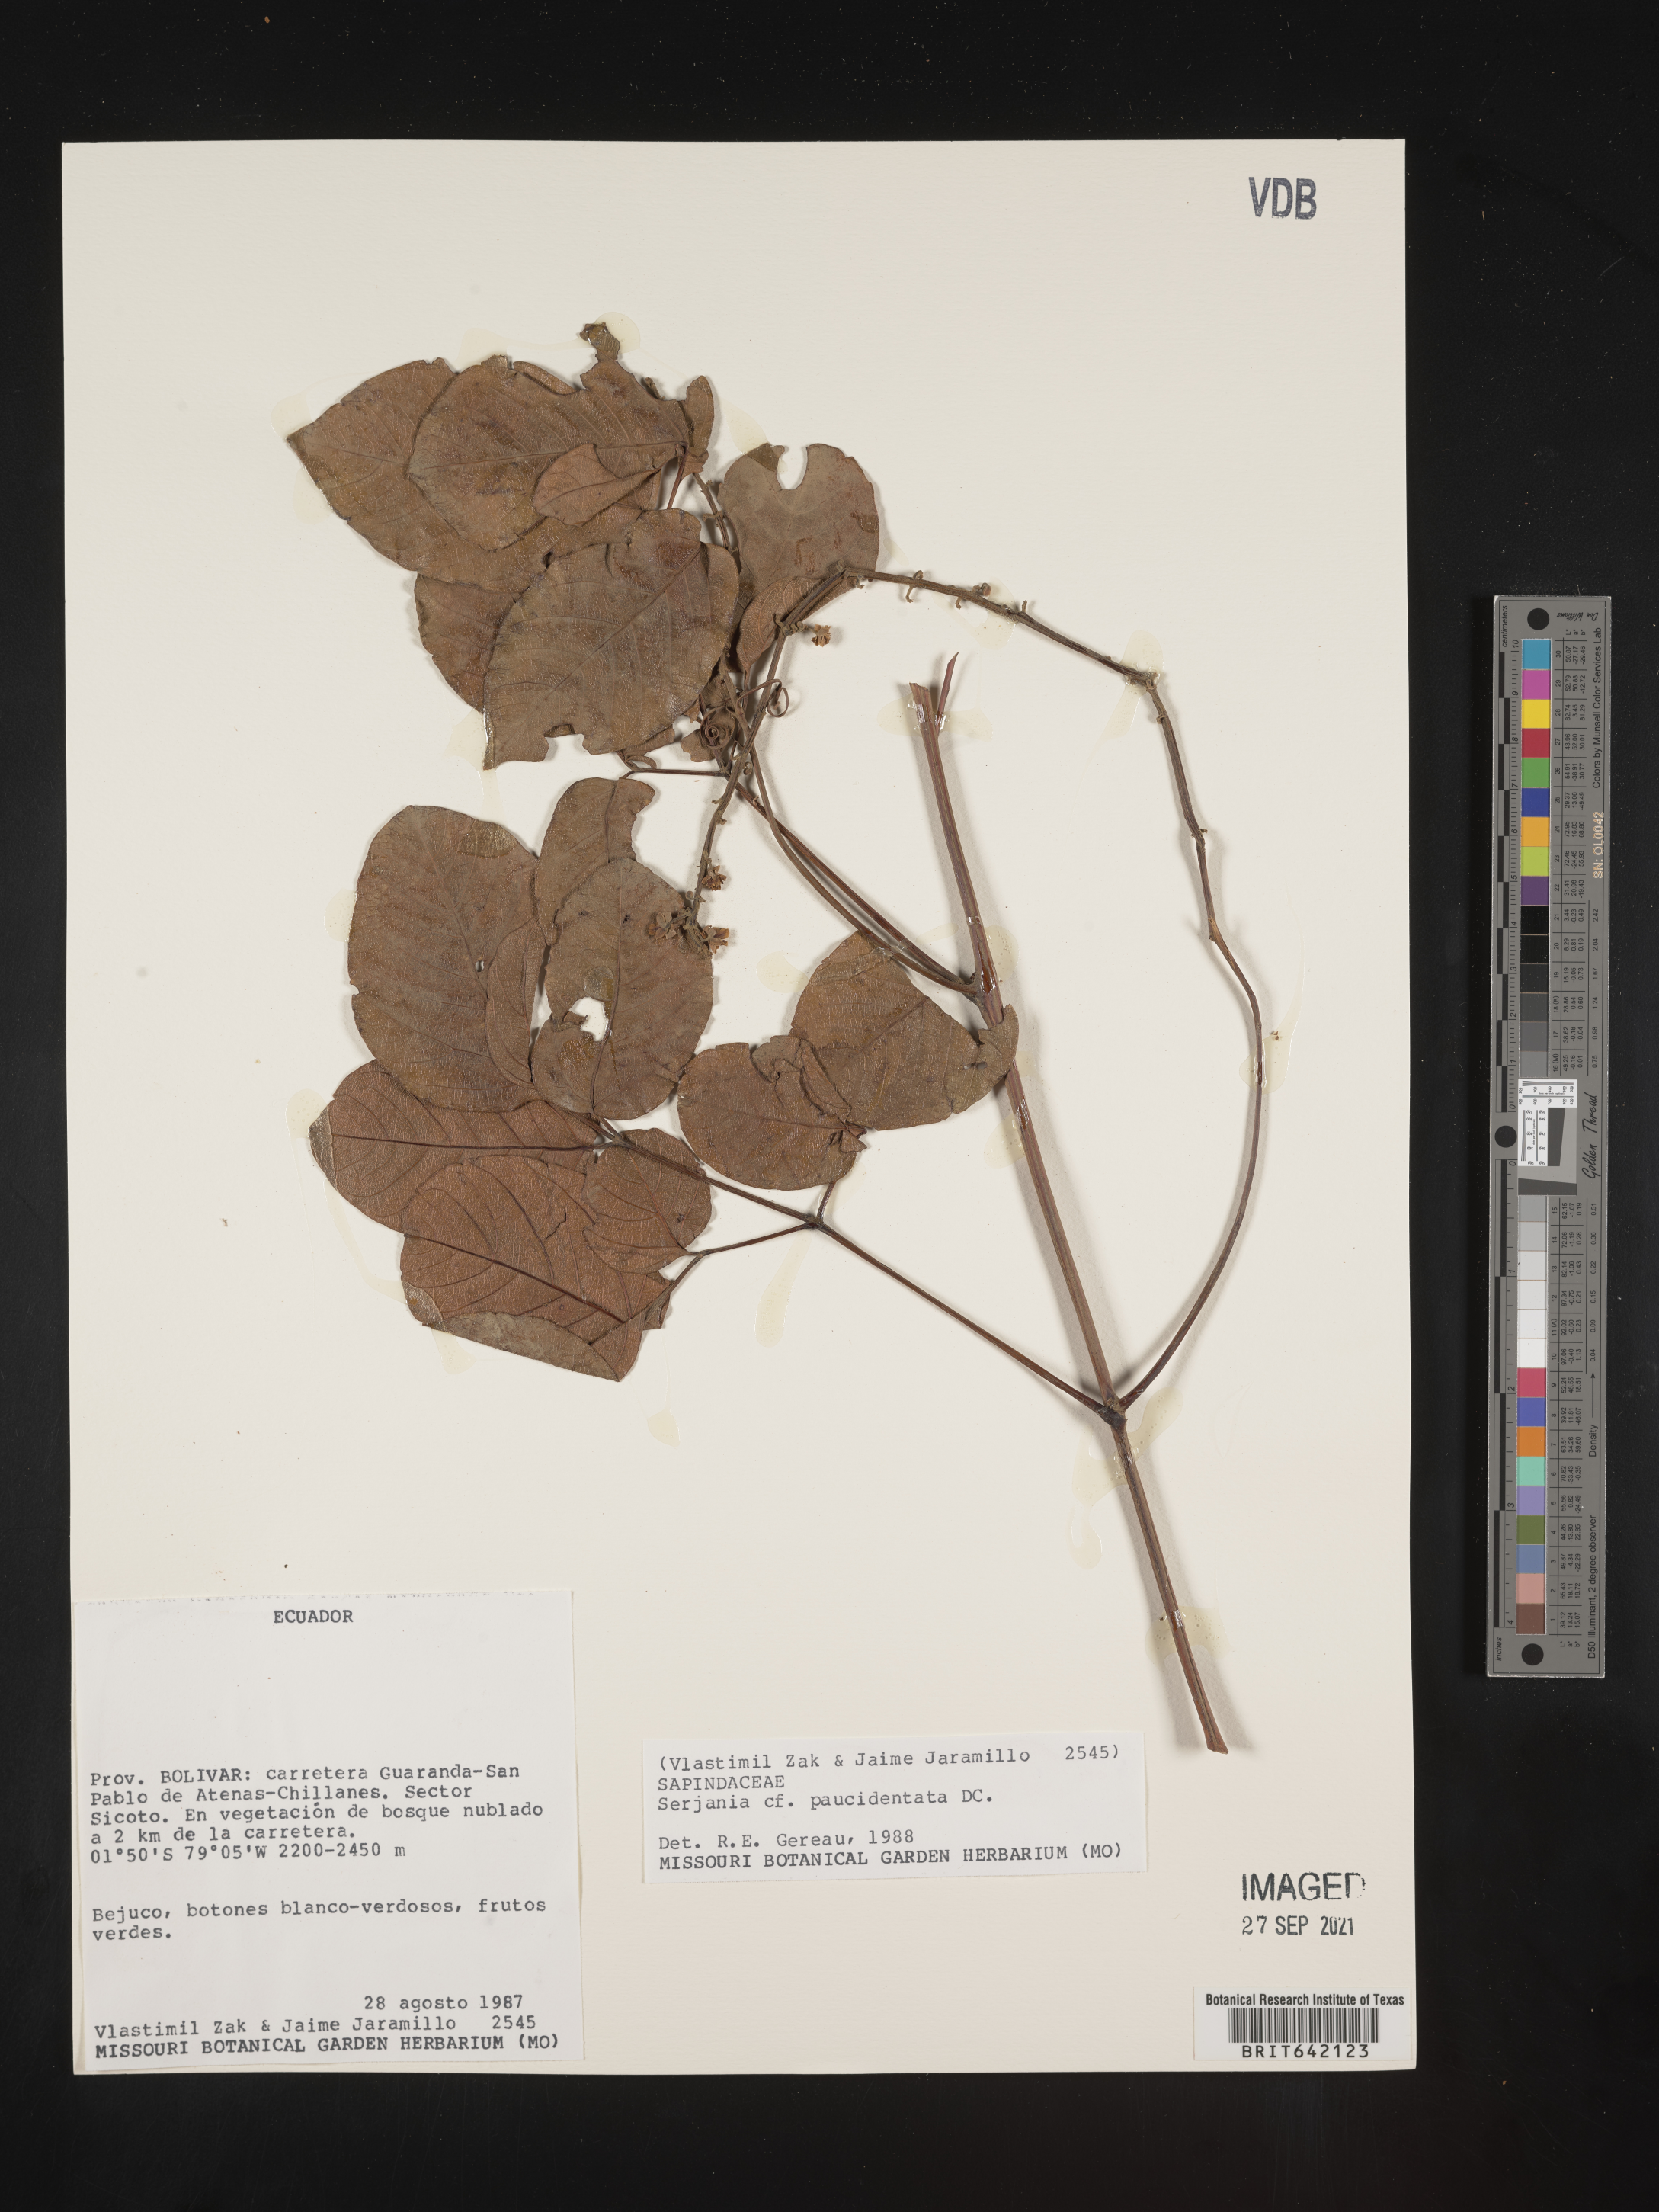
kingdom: Plantae
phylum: Tracheophyta
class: Magnoliopsida
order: Sapindales
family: Sapindaceae
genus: Serjania
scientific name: Serjania
